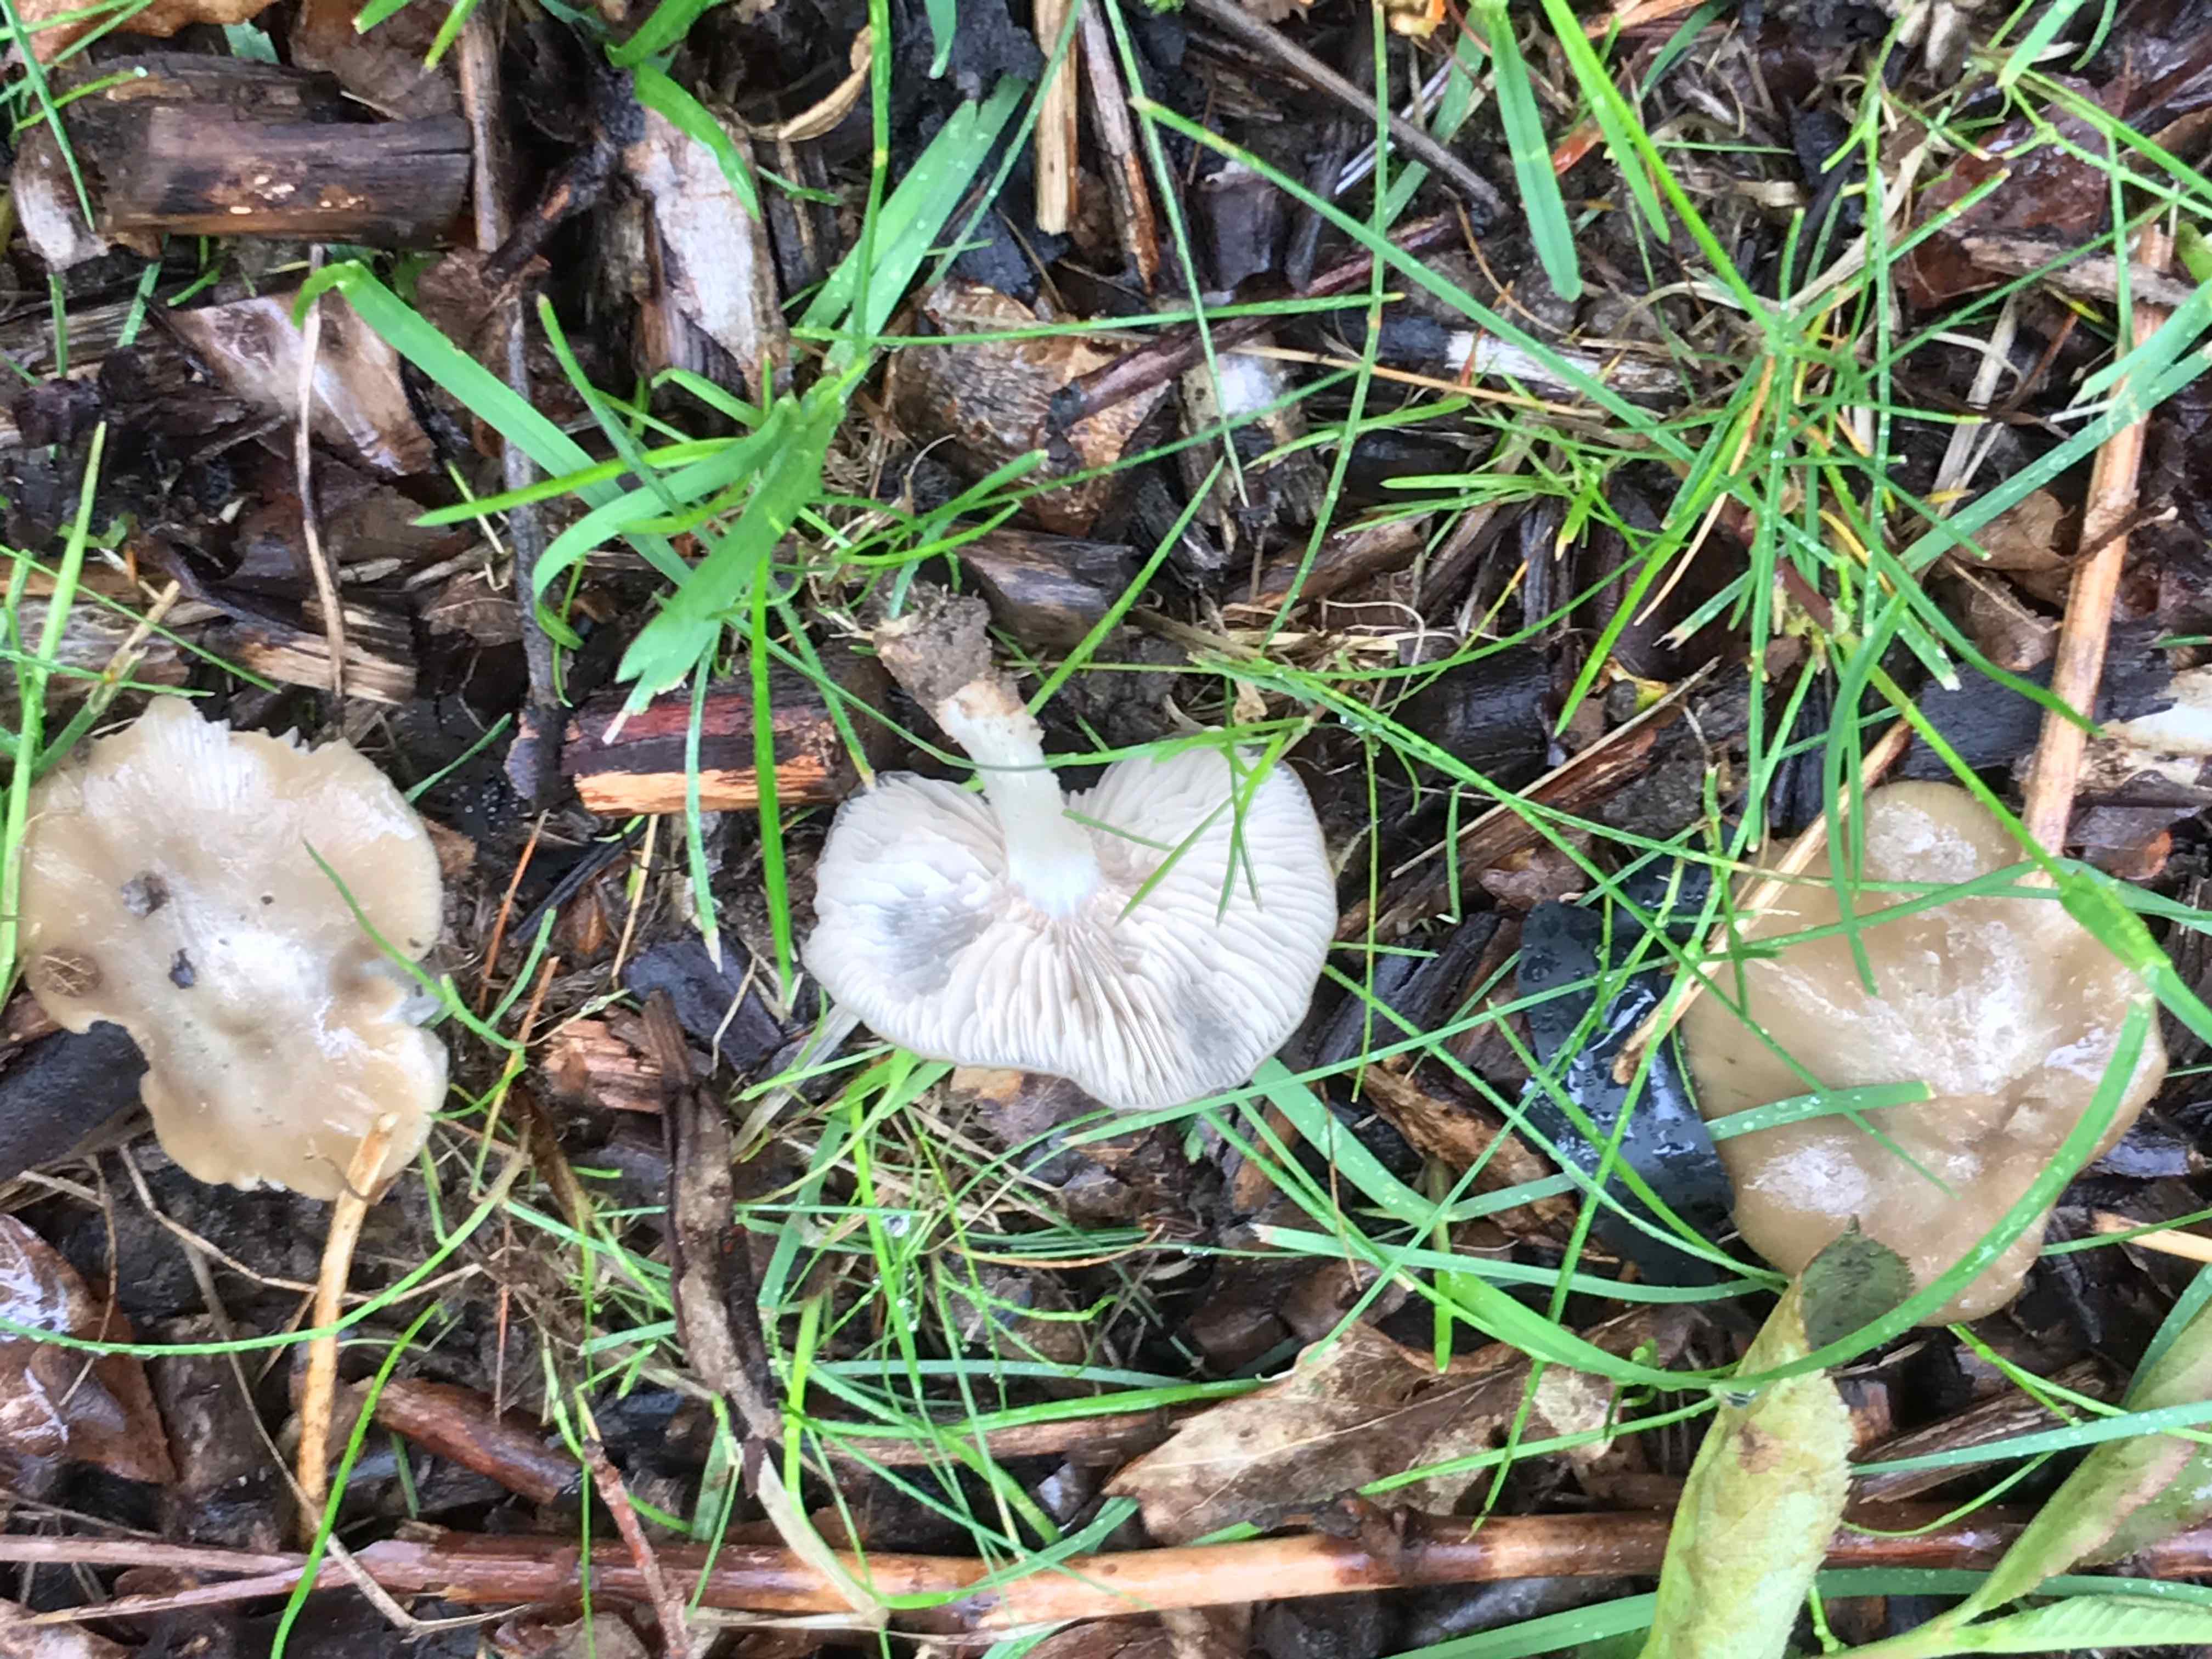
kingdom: Fungi
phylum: Basidiomycota
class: Agaricomycetes
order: Agaricales
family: Entolomataceae
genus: Entoloma
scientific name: Entoloma clypeatum
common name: flammet rødblad
